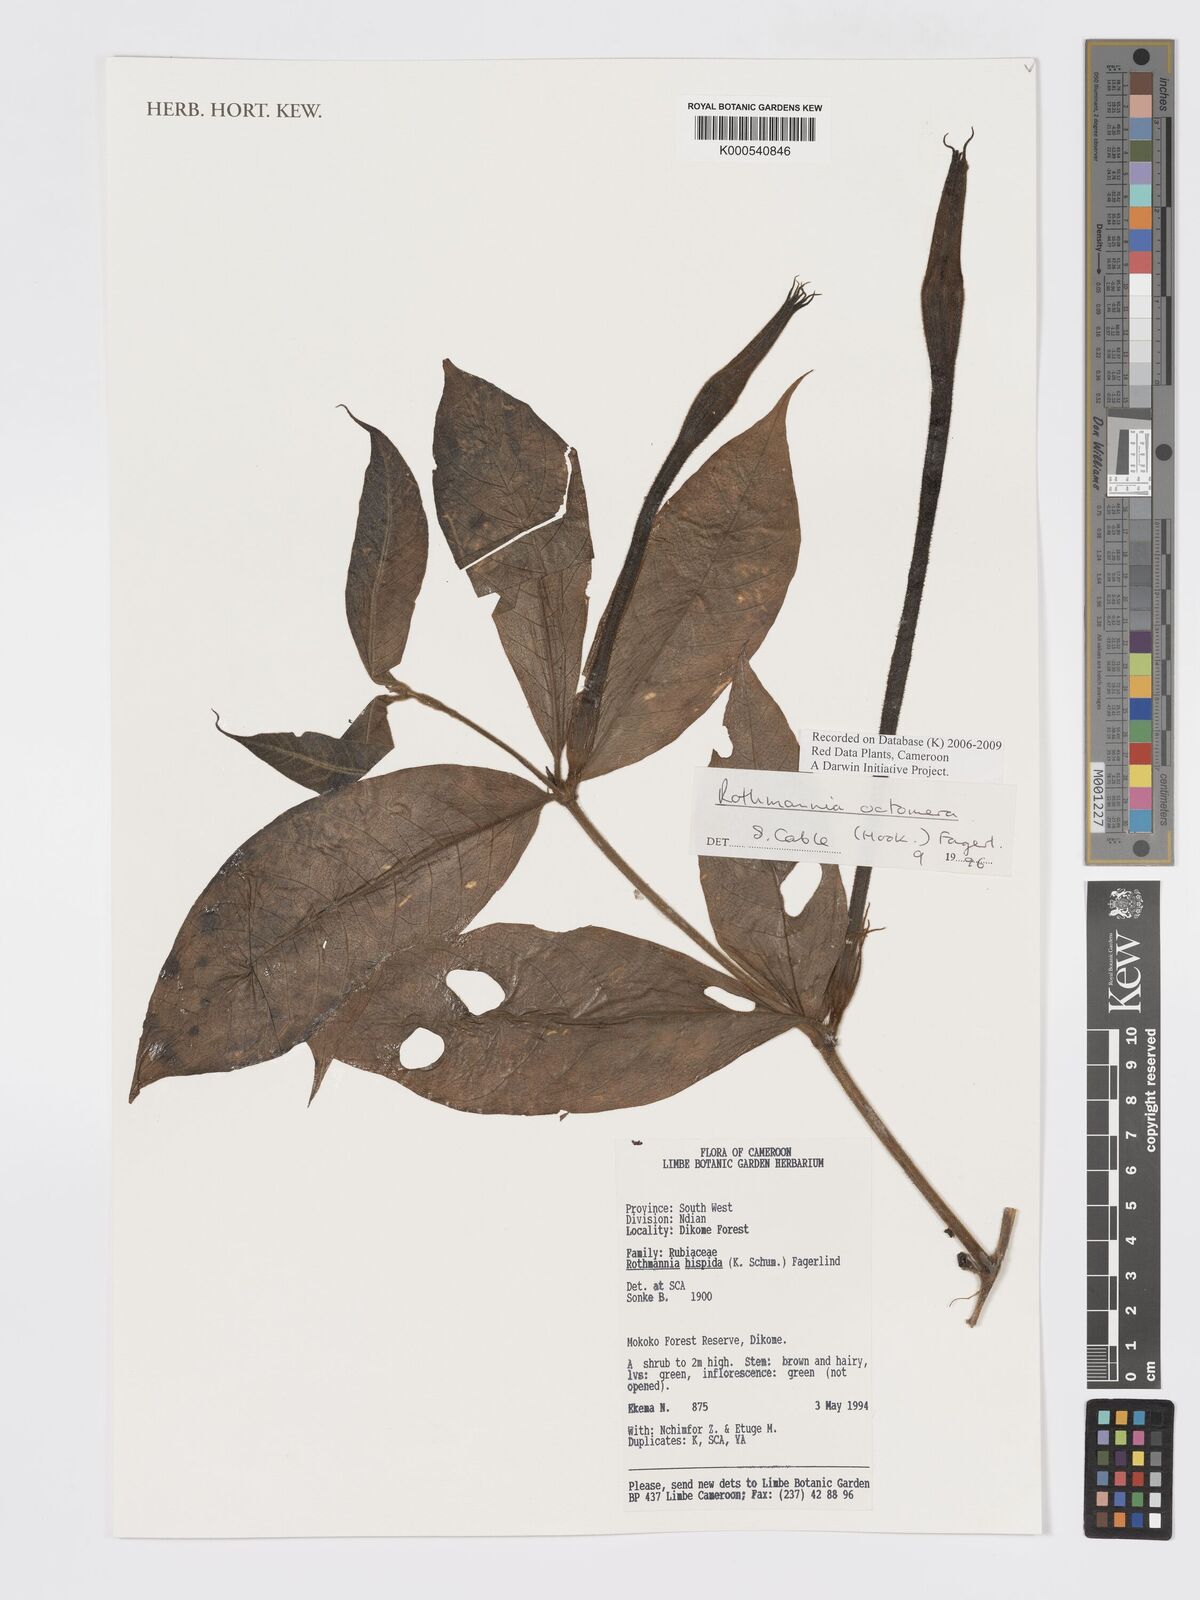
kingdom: Plantae
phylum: Tracheophyta
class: Magnoliopsida
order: Gentianales
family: Rubiaceae
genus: Rothmannia
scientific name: Rothmannia octomera
